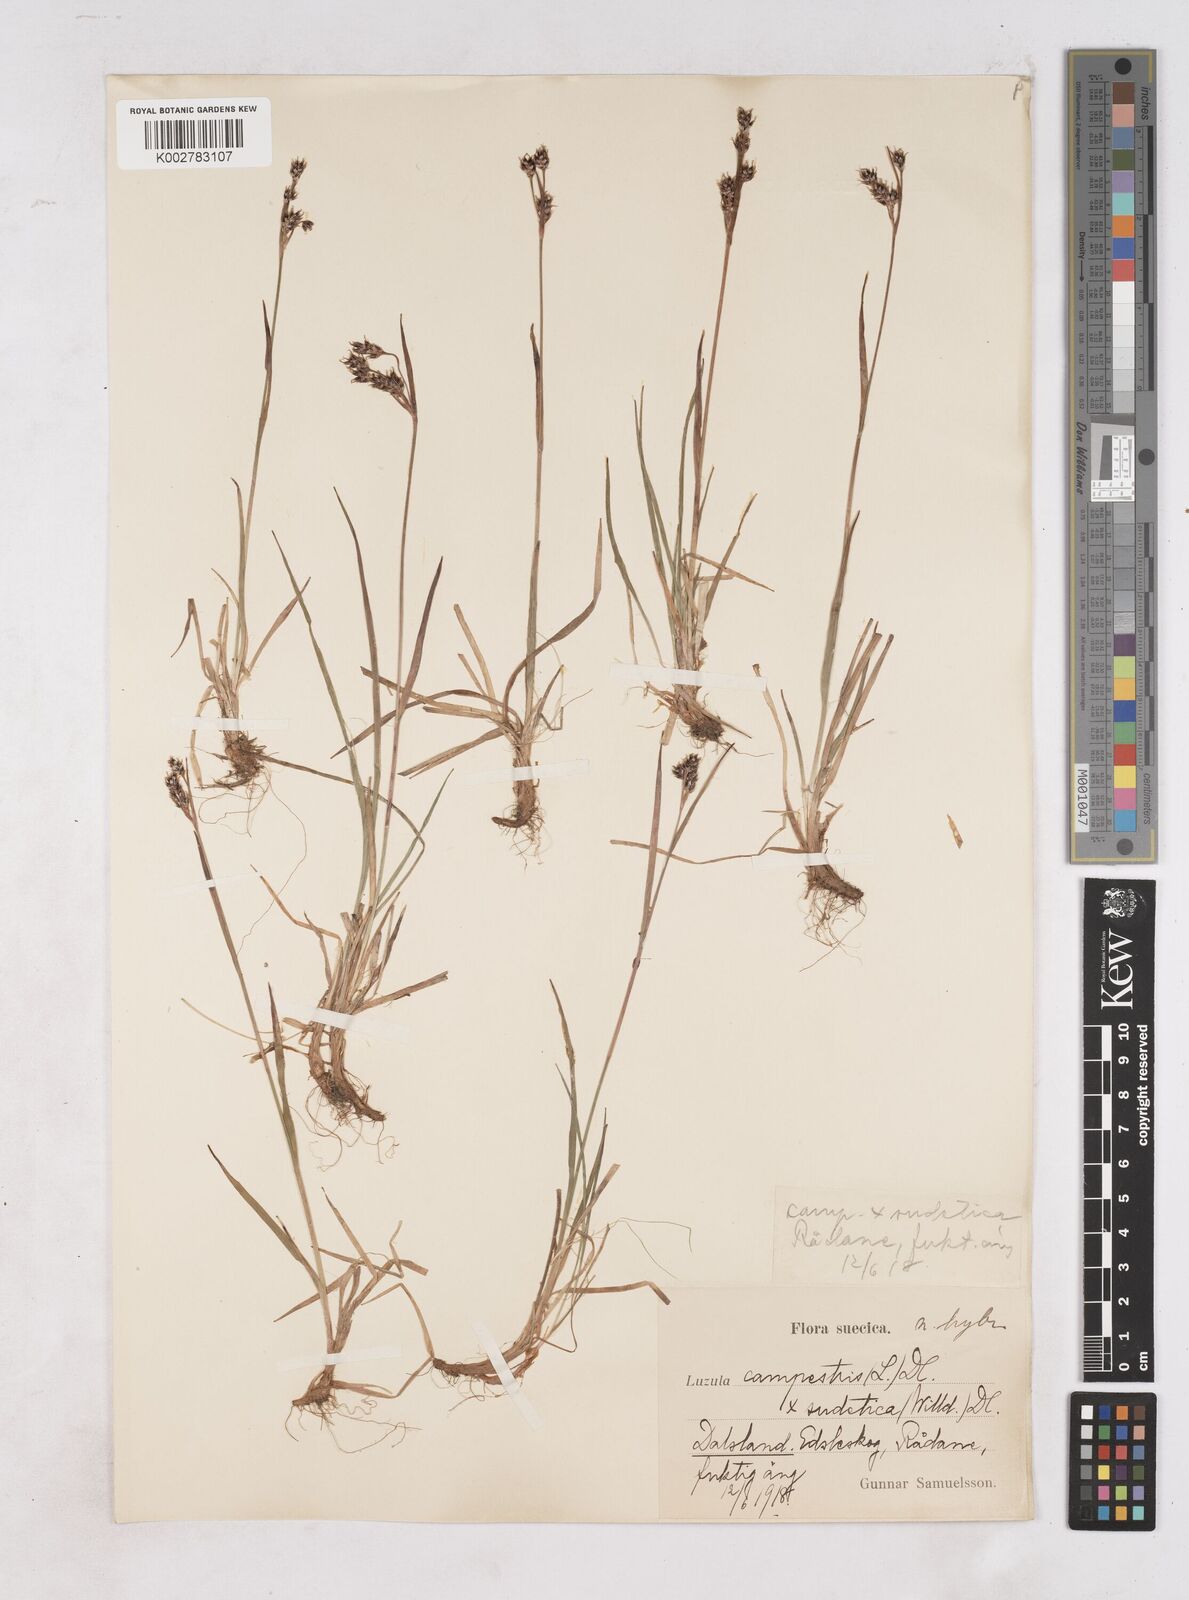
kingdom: Plantae
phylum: Tracheophyta
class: Liliopsida
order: Poales
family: Juncaceae
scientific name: Juncaceae
